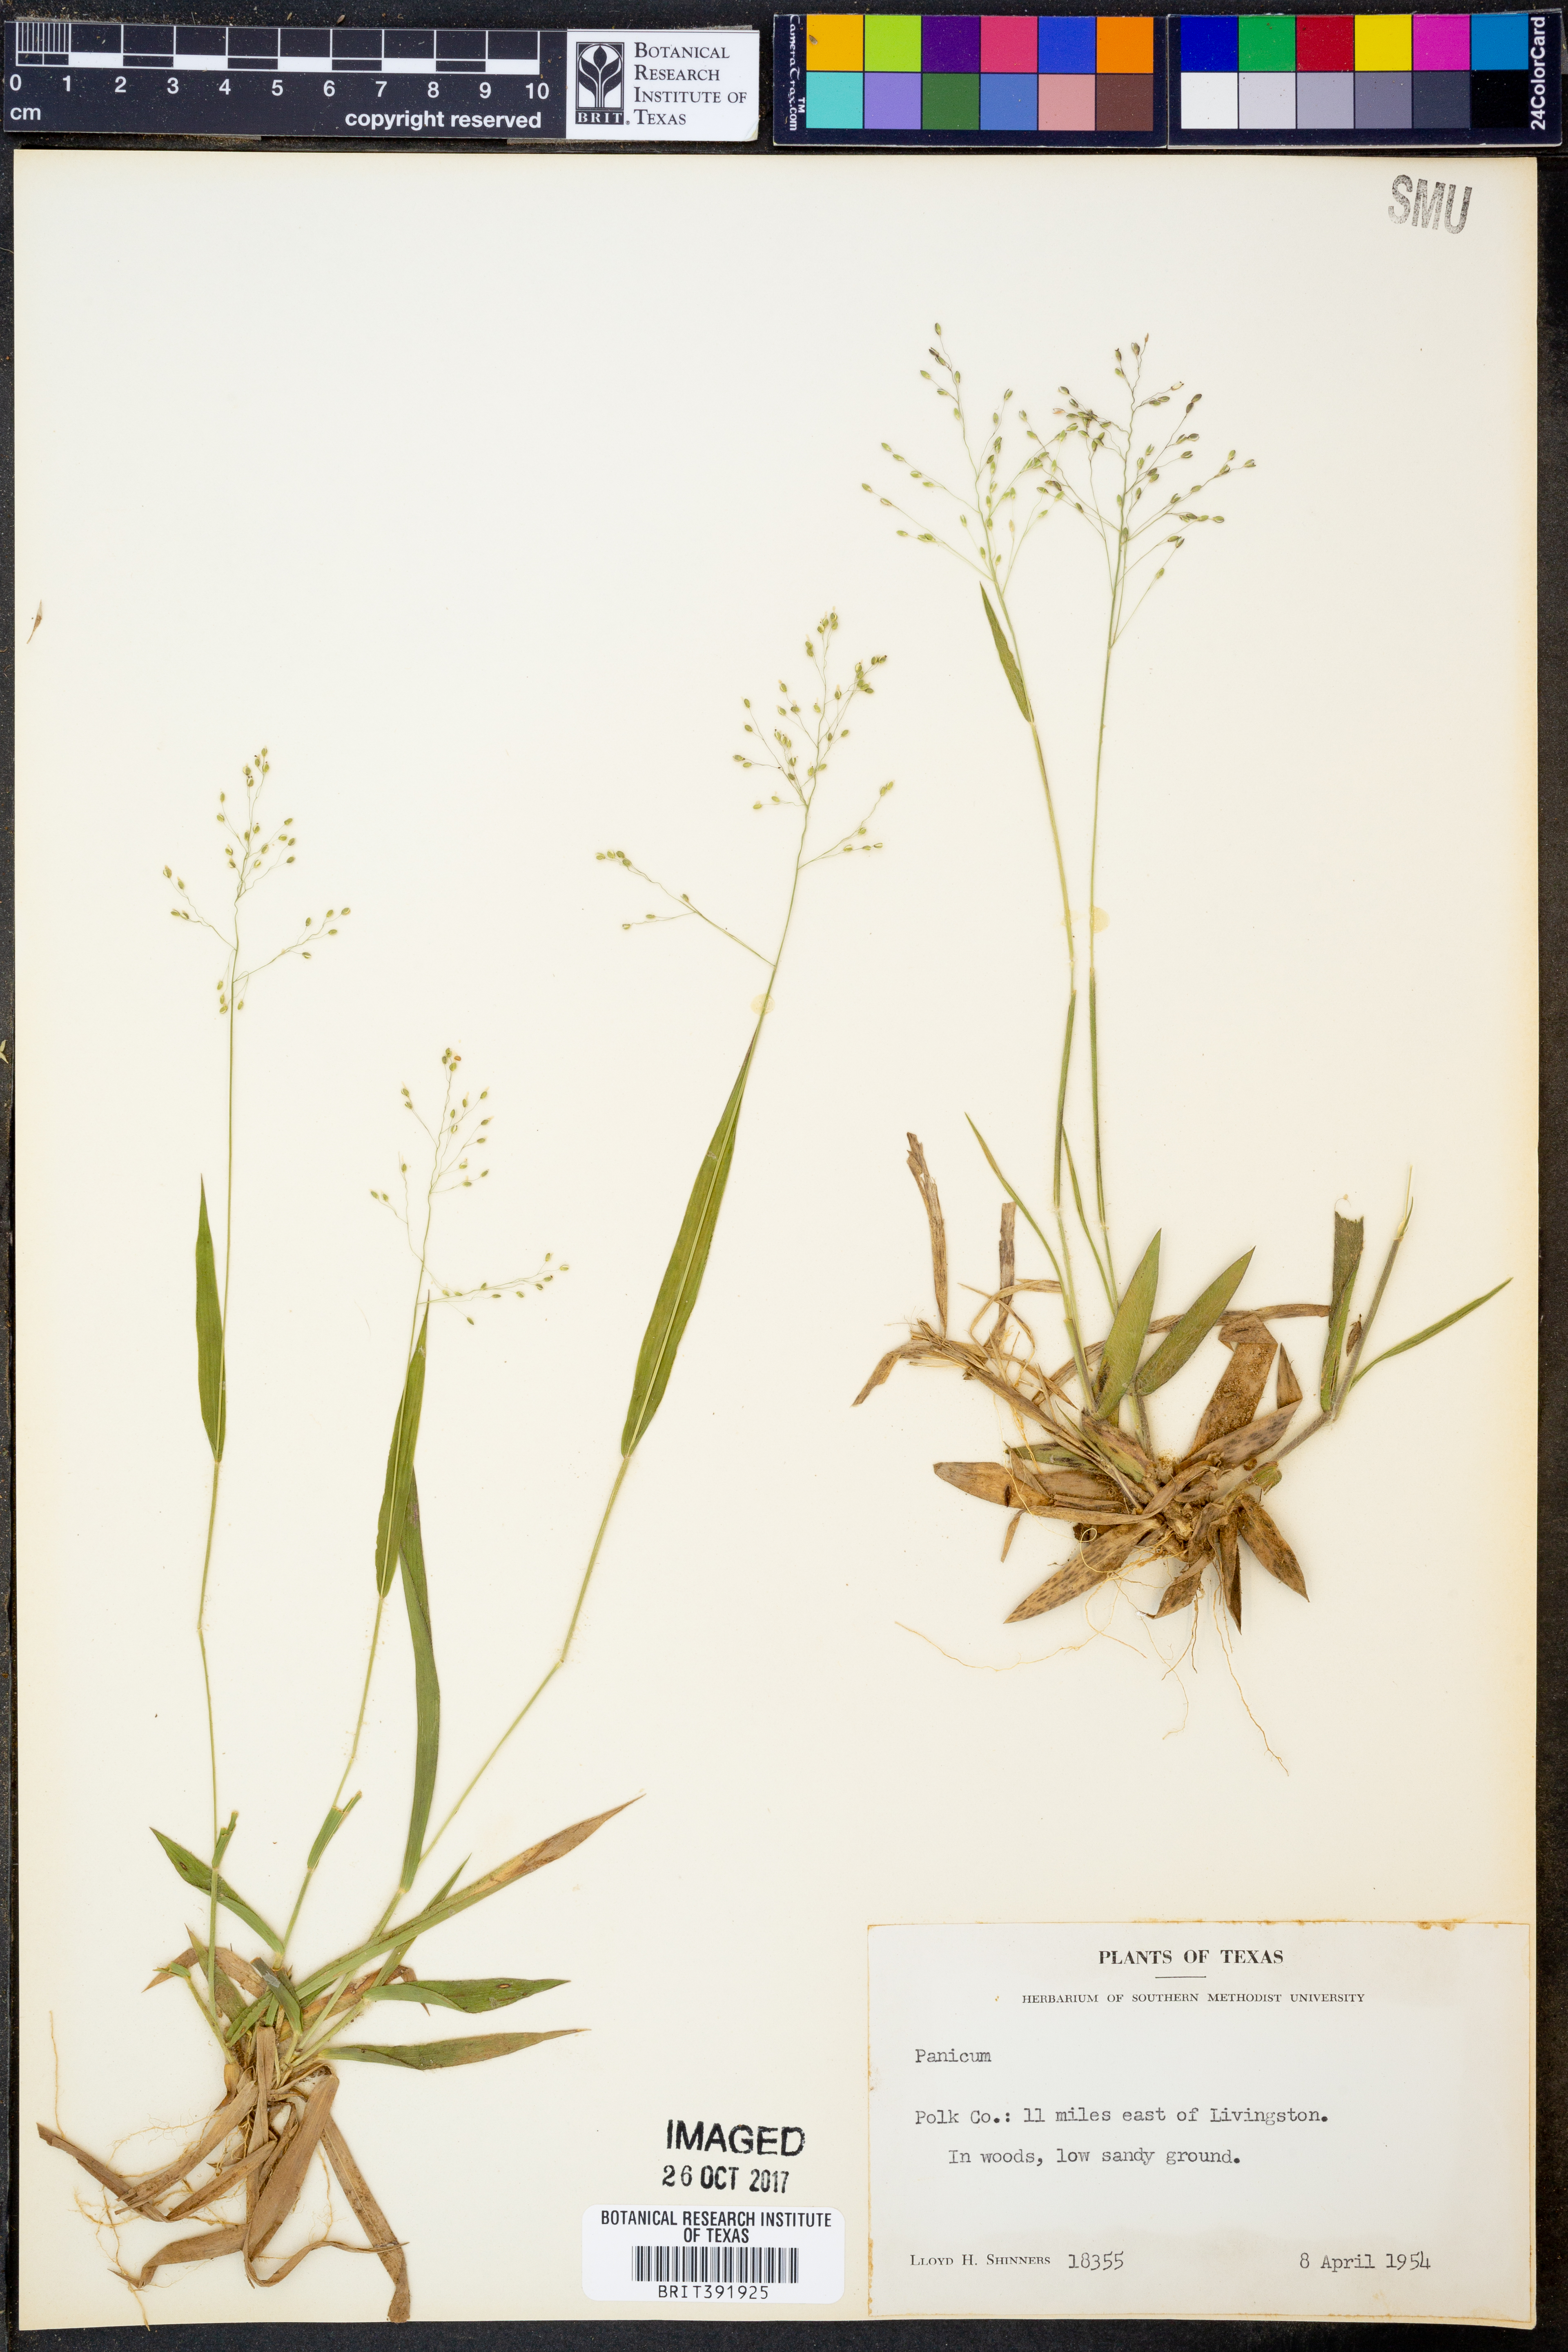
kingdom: Plantae
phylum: Tracheophyta
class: Liliopsida
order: Poales
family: Poaceae
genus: Panicum
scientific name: Panicum
